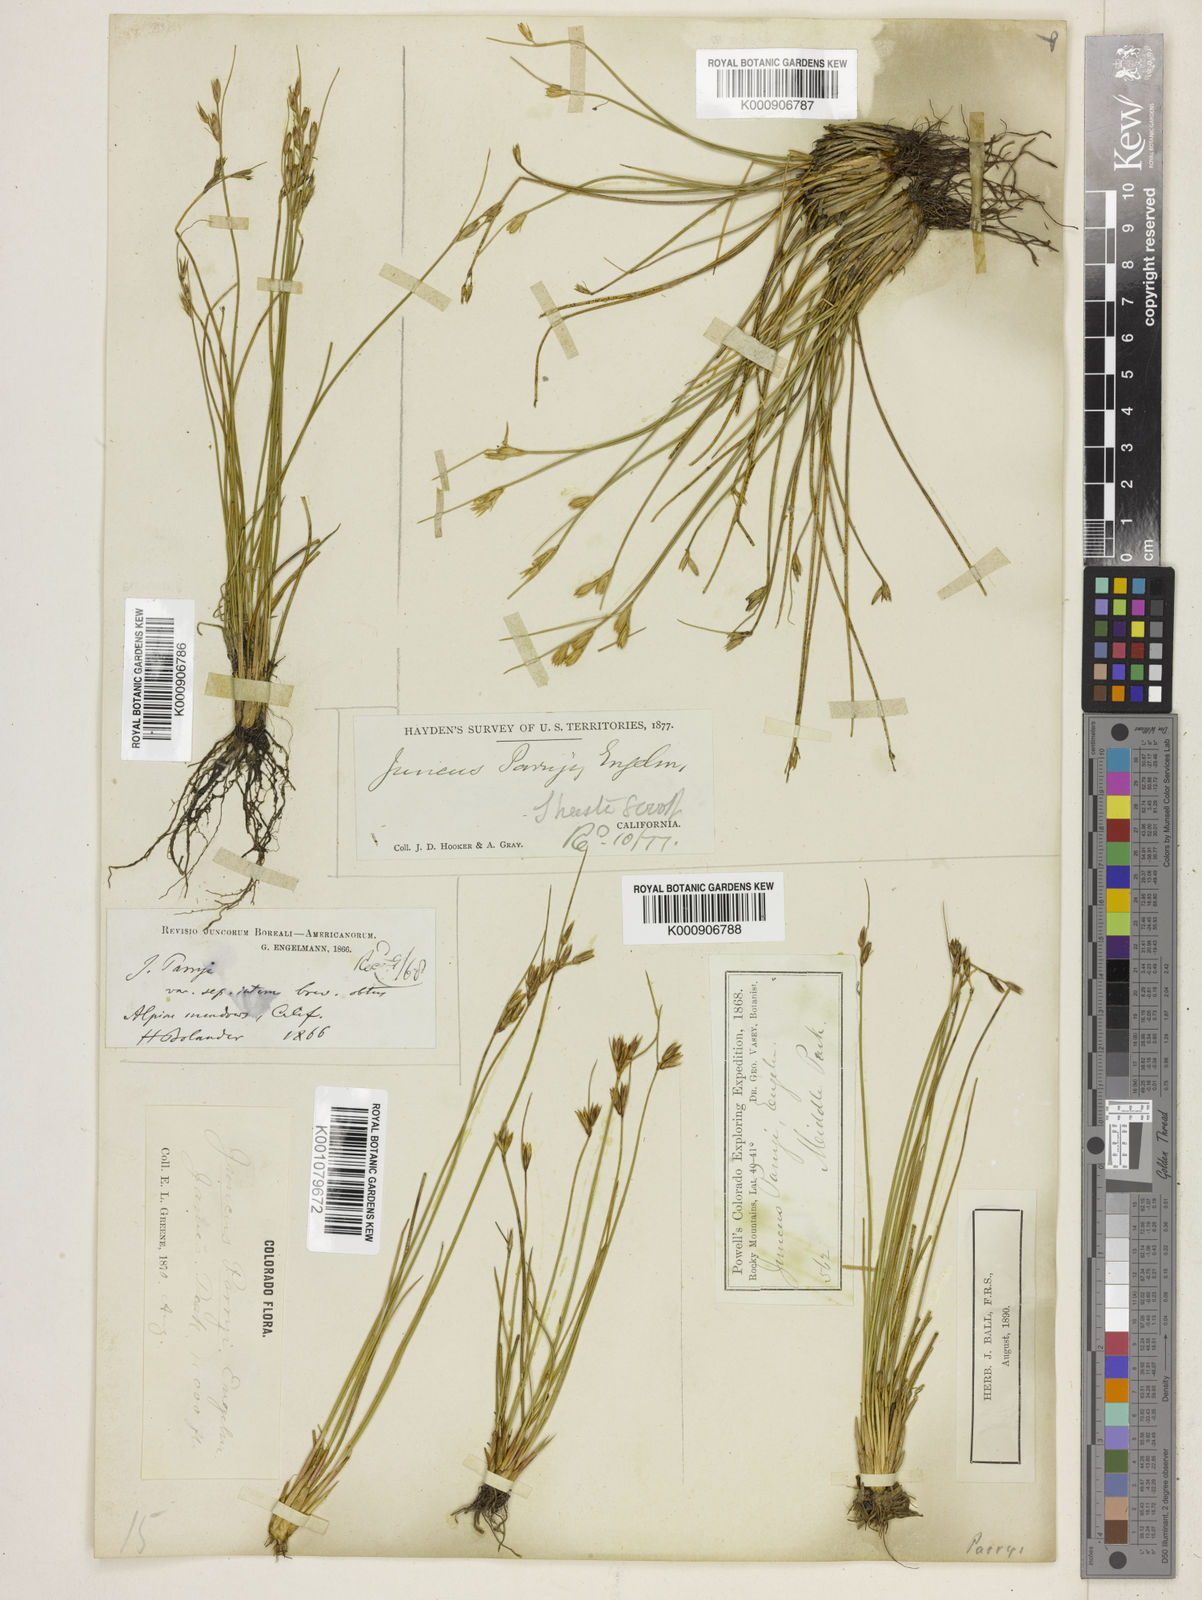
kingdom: Plantae
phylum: Tracheophyta
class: Liliopsida
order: Poales
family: Juncaceae
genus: Juncus
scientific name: Juncus parryi
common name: Parry's rush
